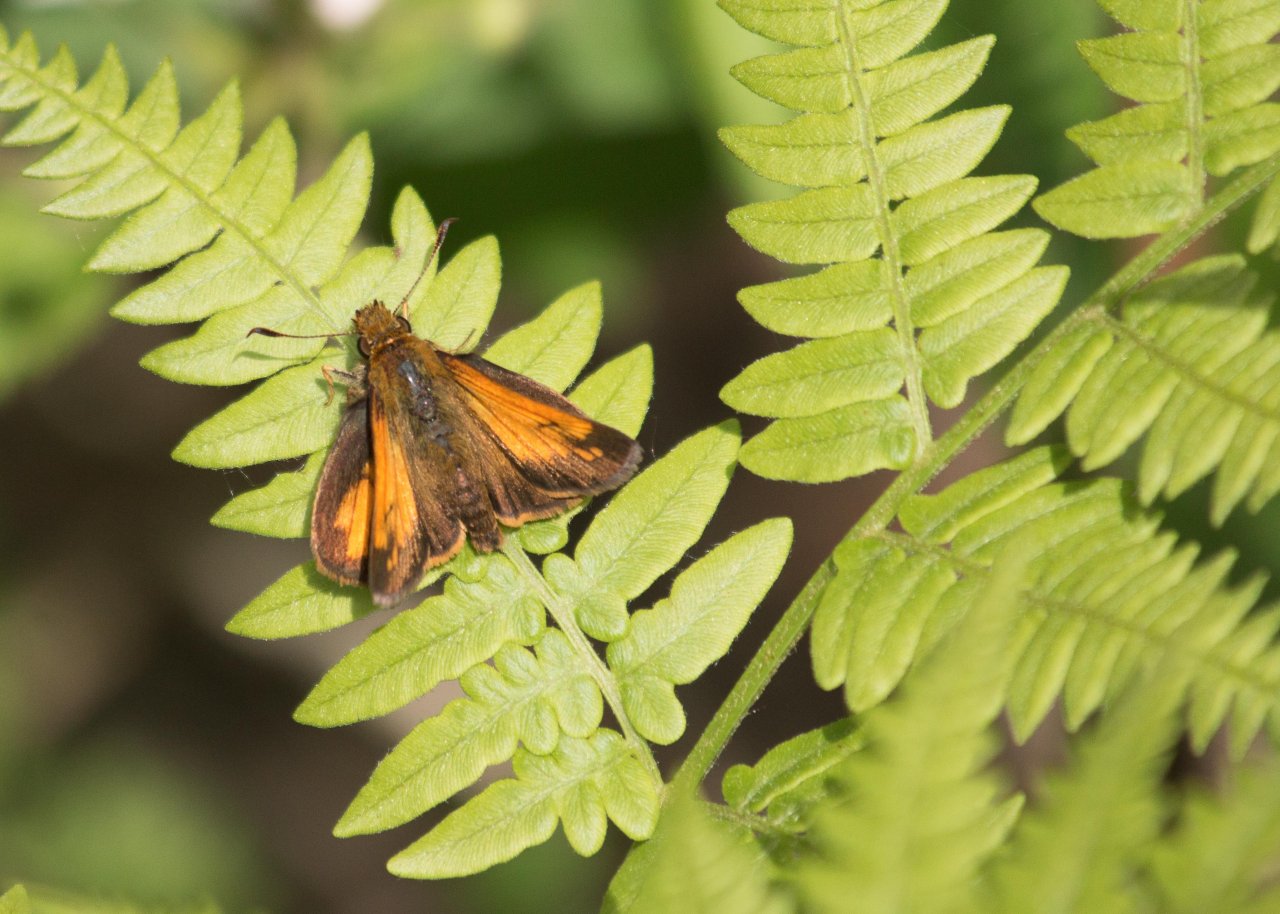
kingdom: Animalia
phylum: Arthropoda
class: Insecta
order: Lepidoptera
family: Hesperiidae
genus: Lon
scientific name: Lon hobomok
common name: Hobomok Skipper
